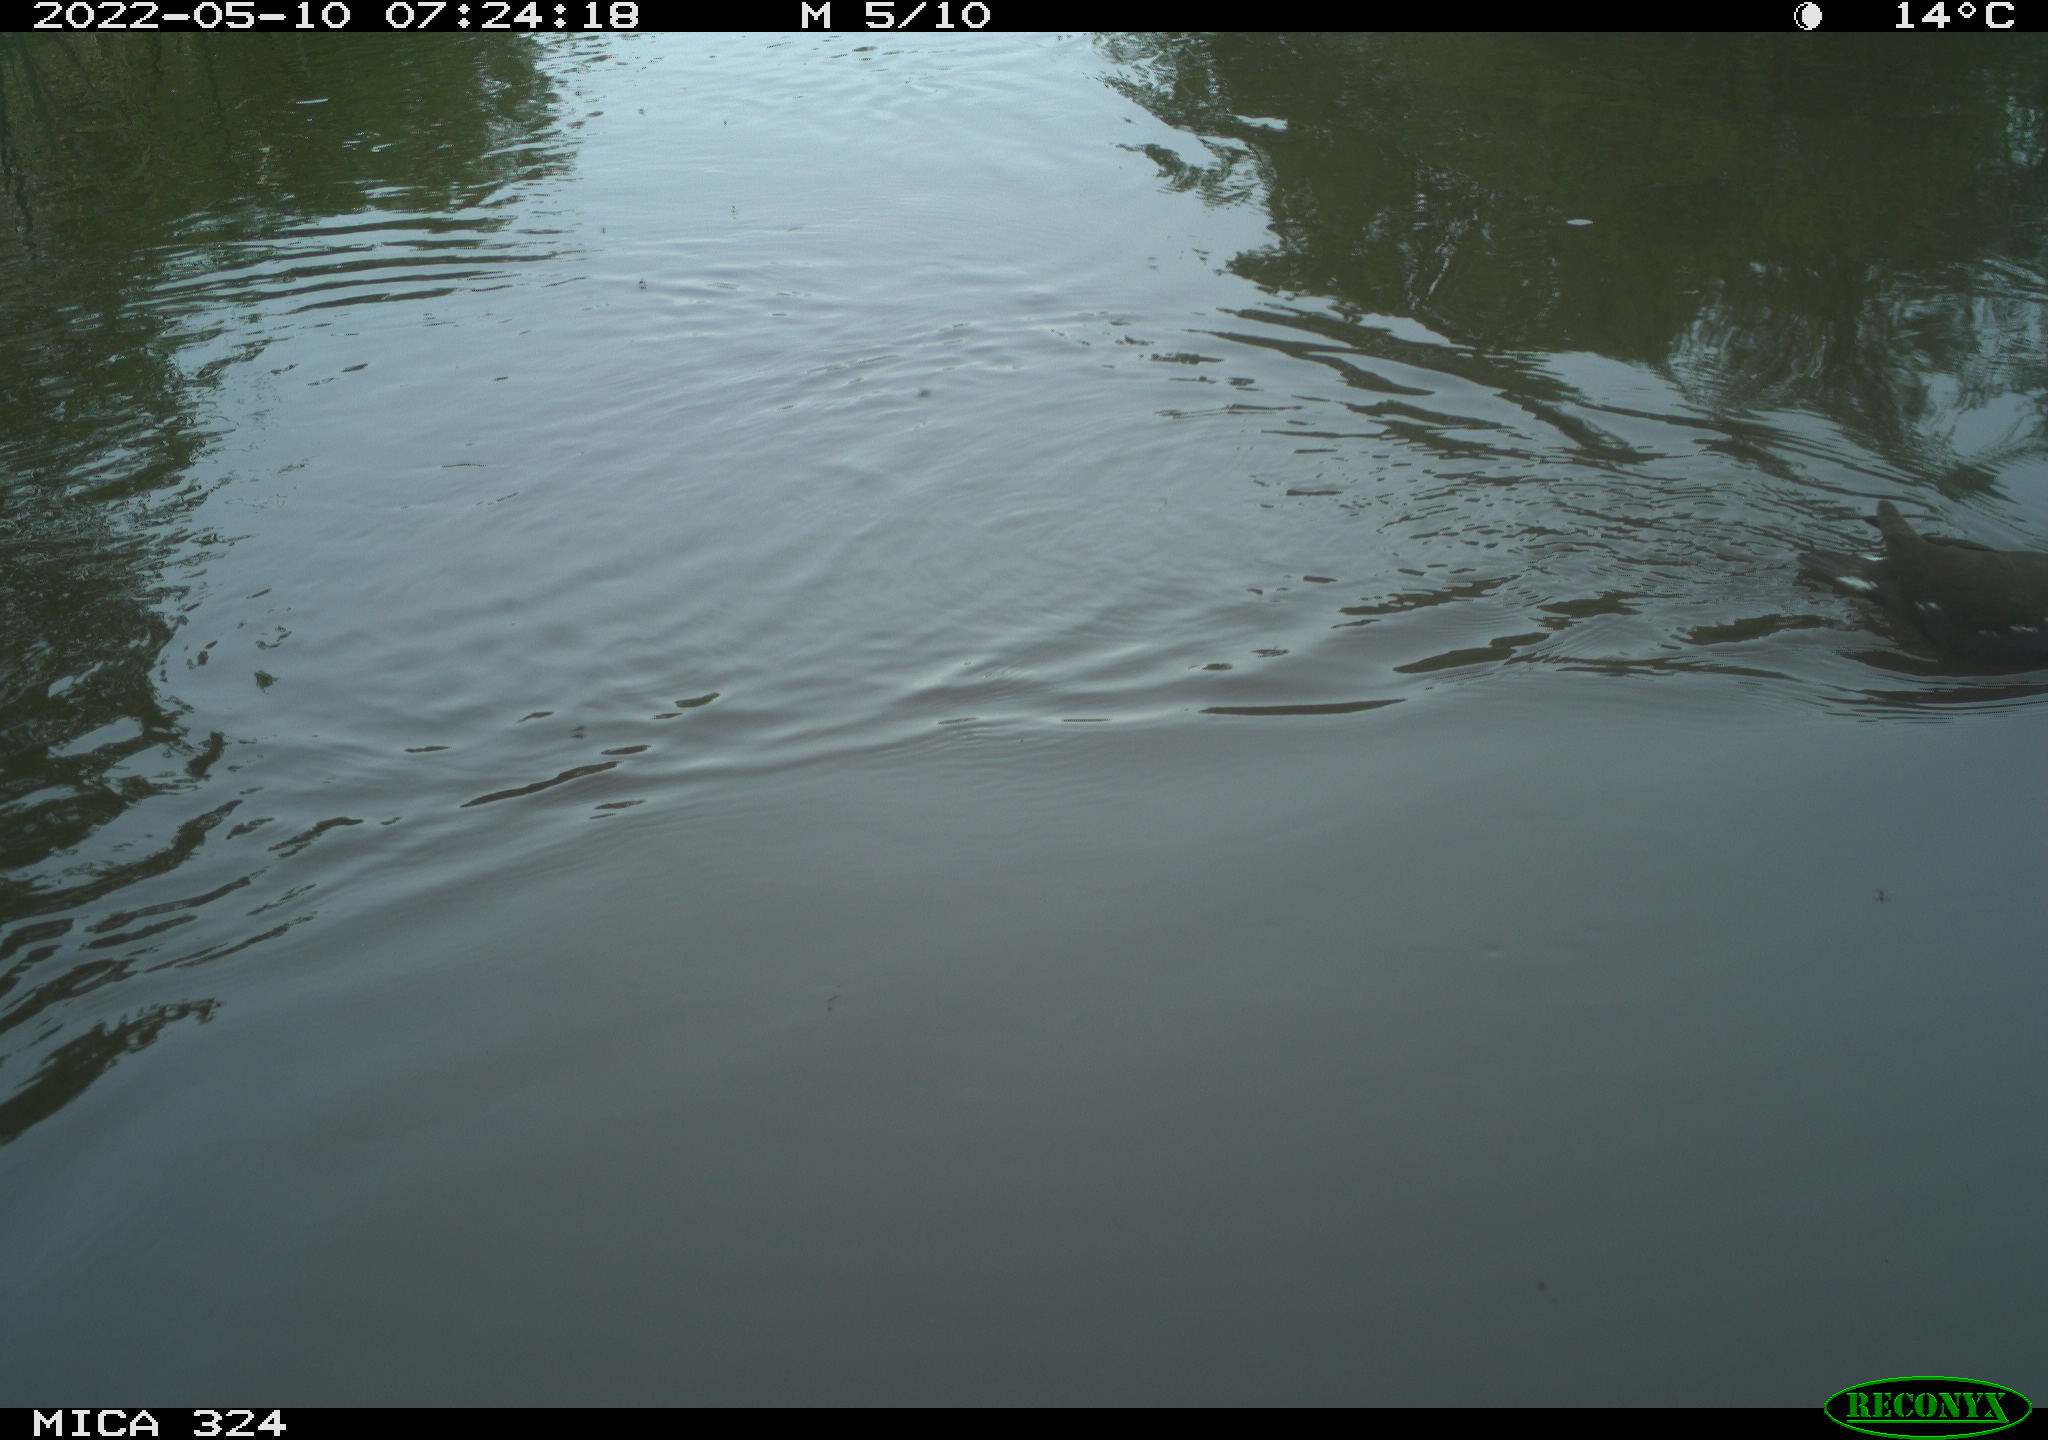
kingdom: Animalia
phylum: Chordata
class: Aves
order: Gruiformes
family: Rallidae
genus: Gallinula
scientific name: Gallinula chloropus
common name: Common moorhen
